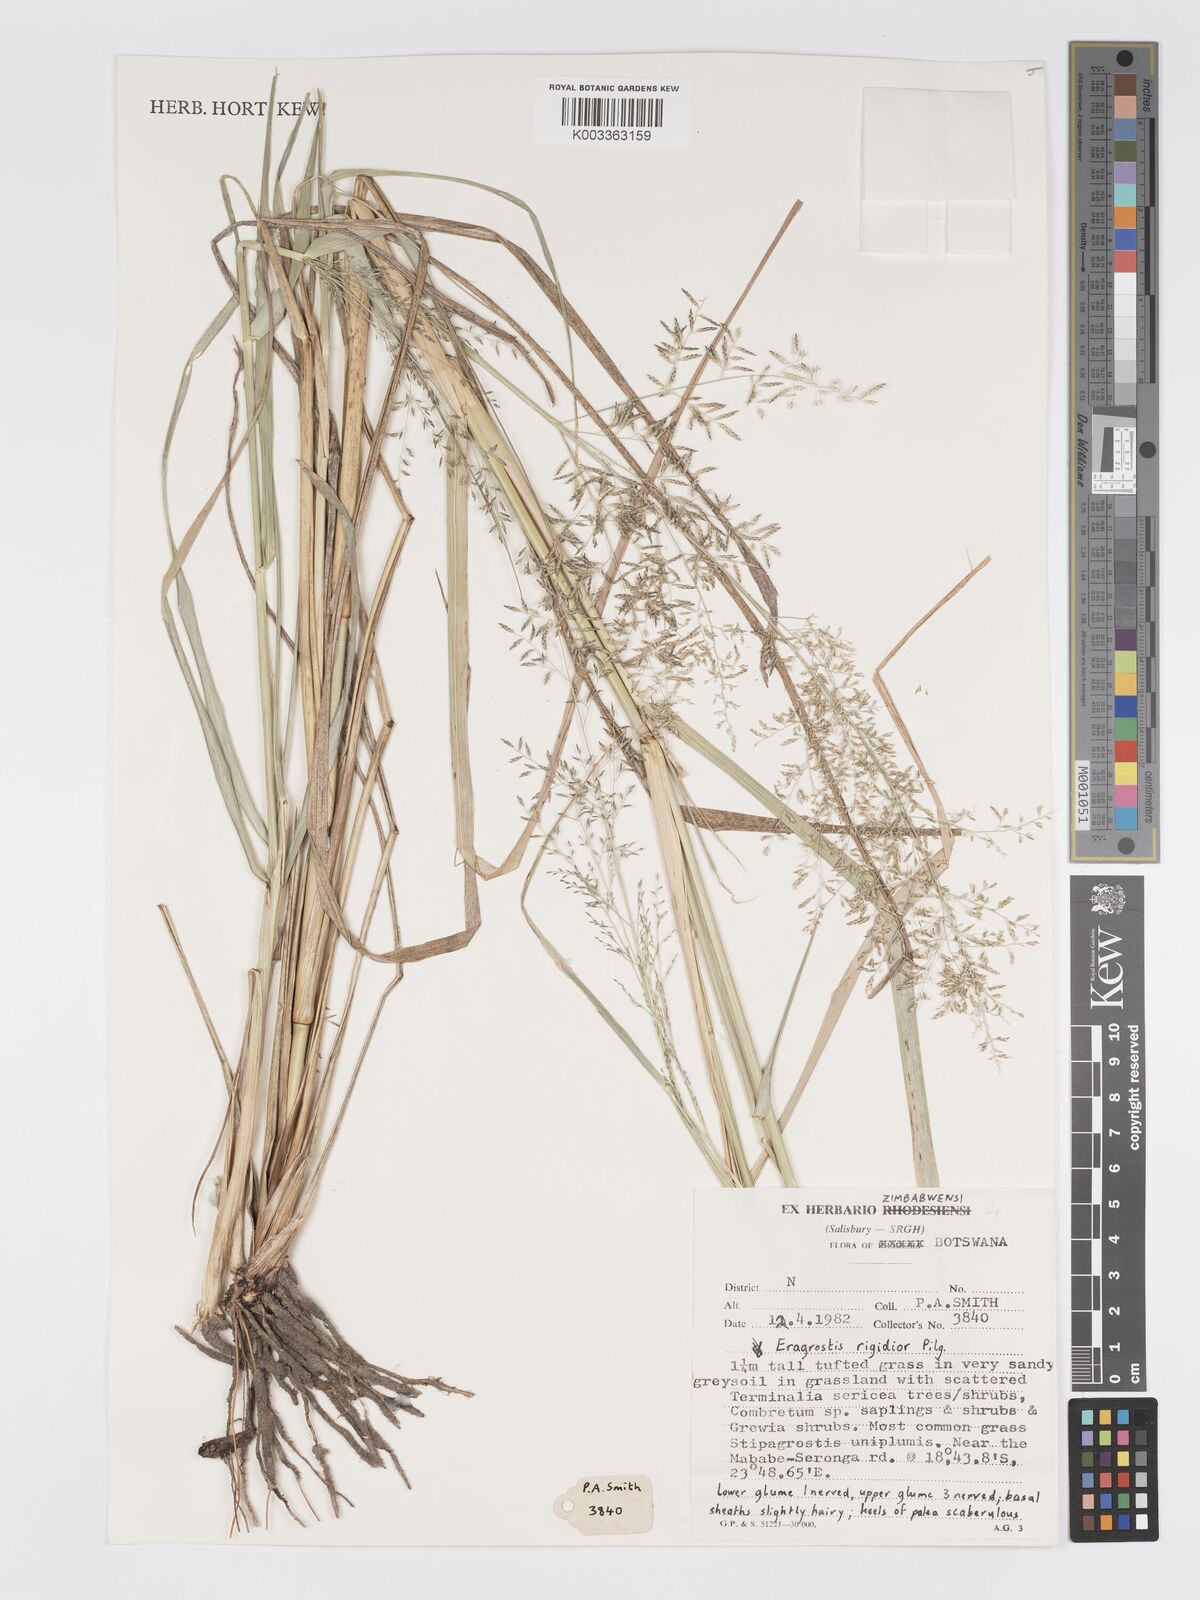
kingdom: Plantae
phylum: Tracheophyta
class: Liliopsida
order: Poales
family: Poaceae
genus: Eragrostis
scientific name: Eragrostis cylindriflora
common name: Cylinderflower lovegrass
